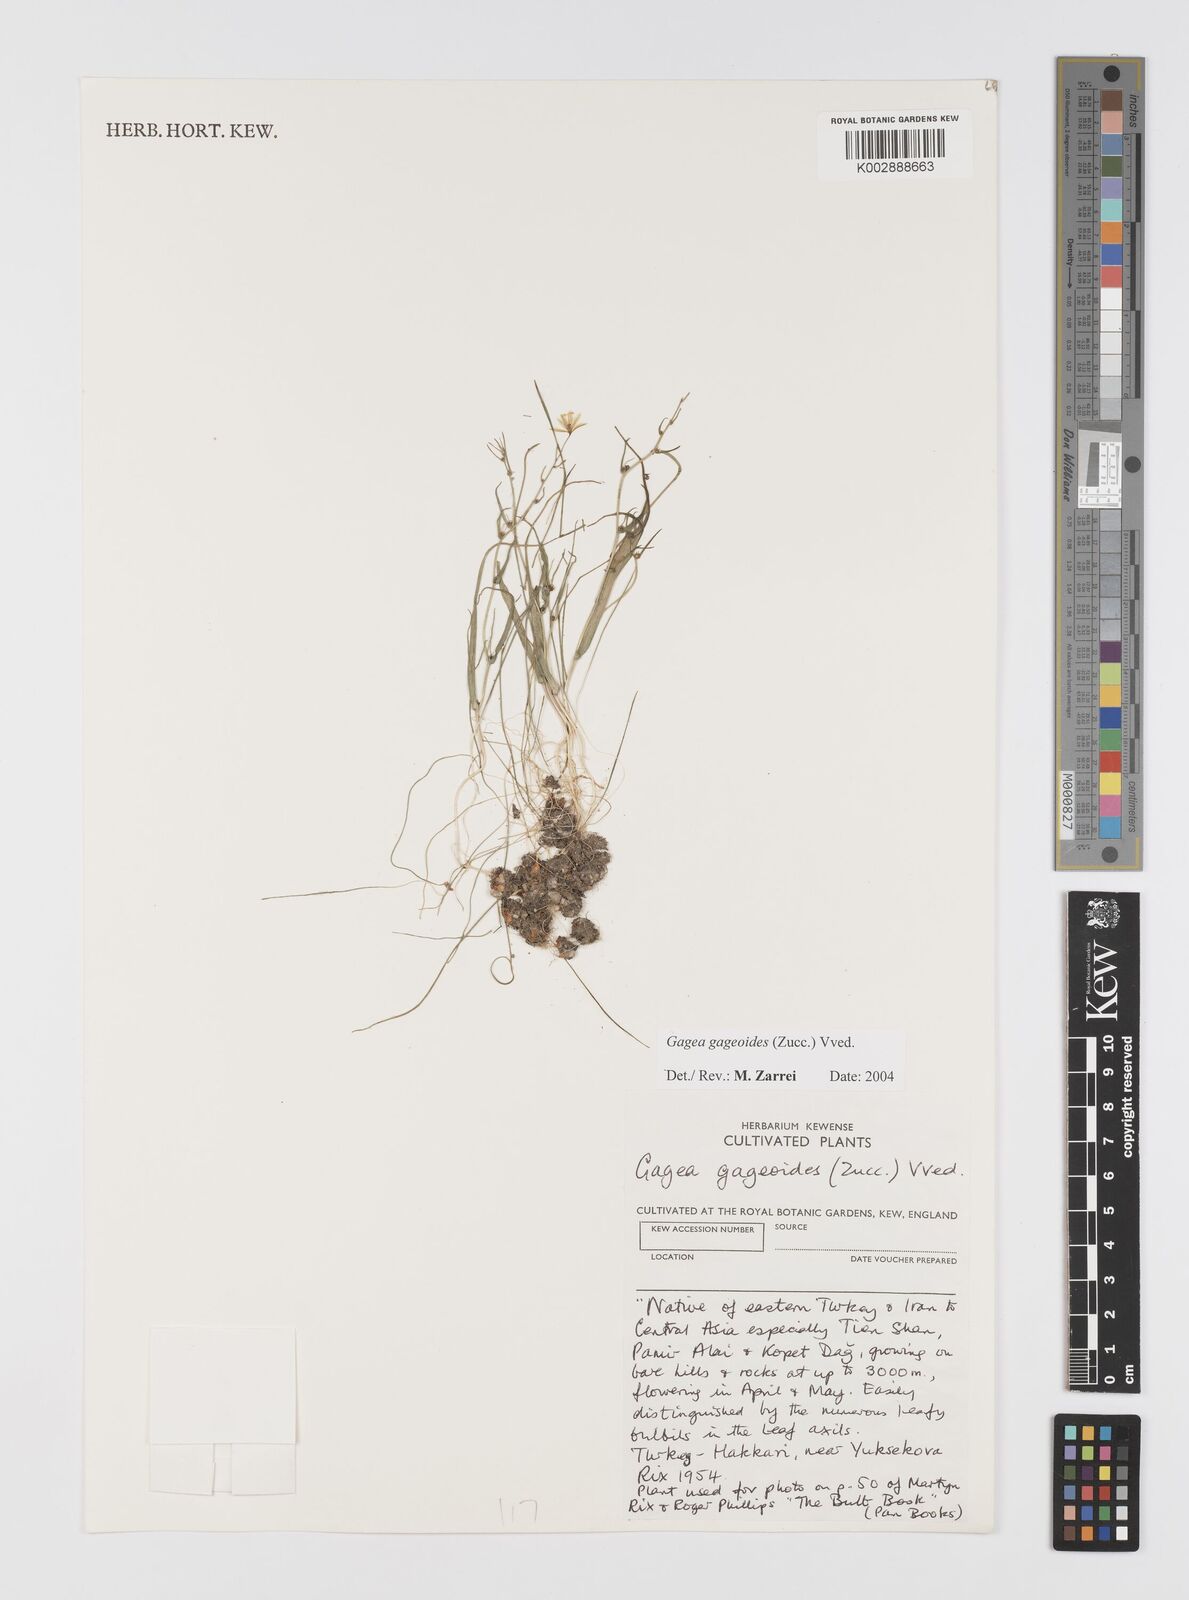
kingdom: Plantae
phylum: Tracheophyta
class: Liliopsida
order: Liliales
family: Liliaceae
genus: Gagea
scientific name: Gagea gageoides
